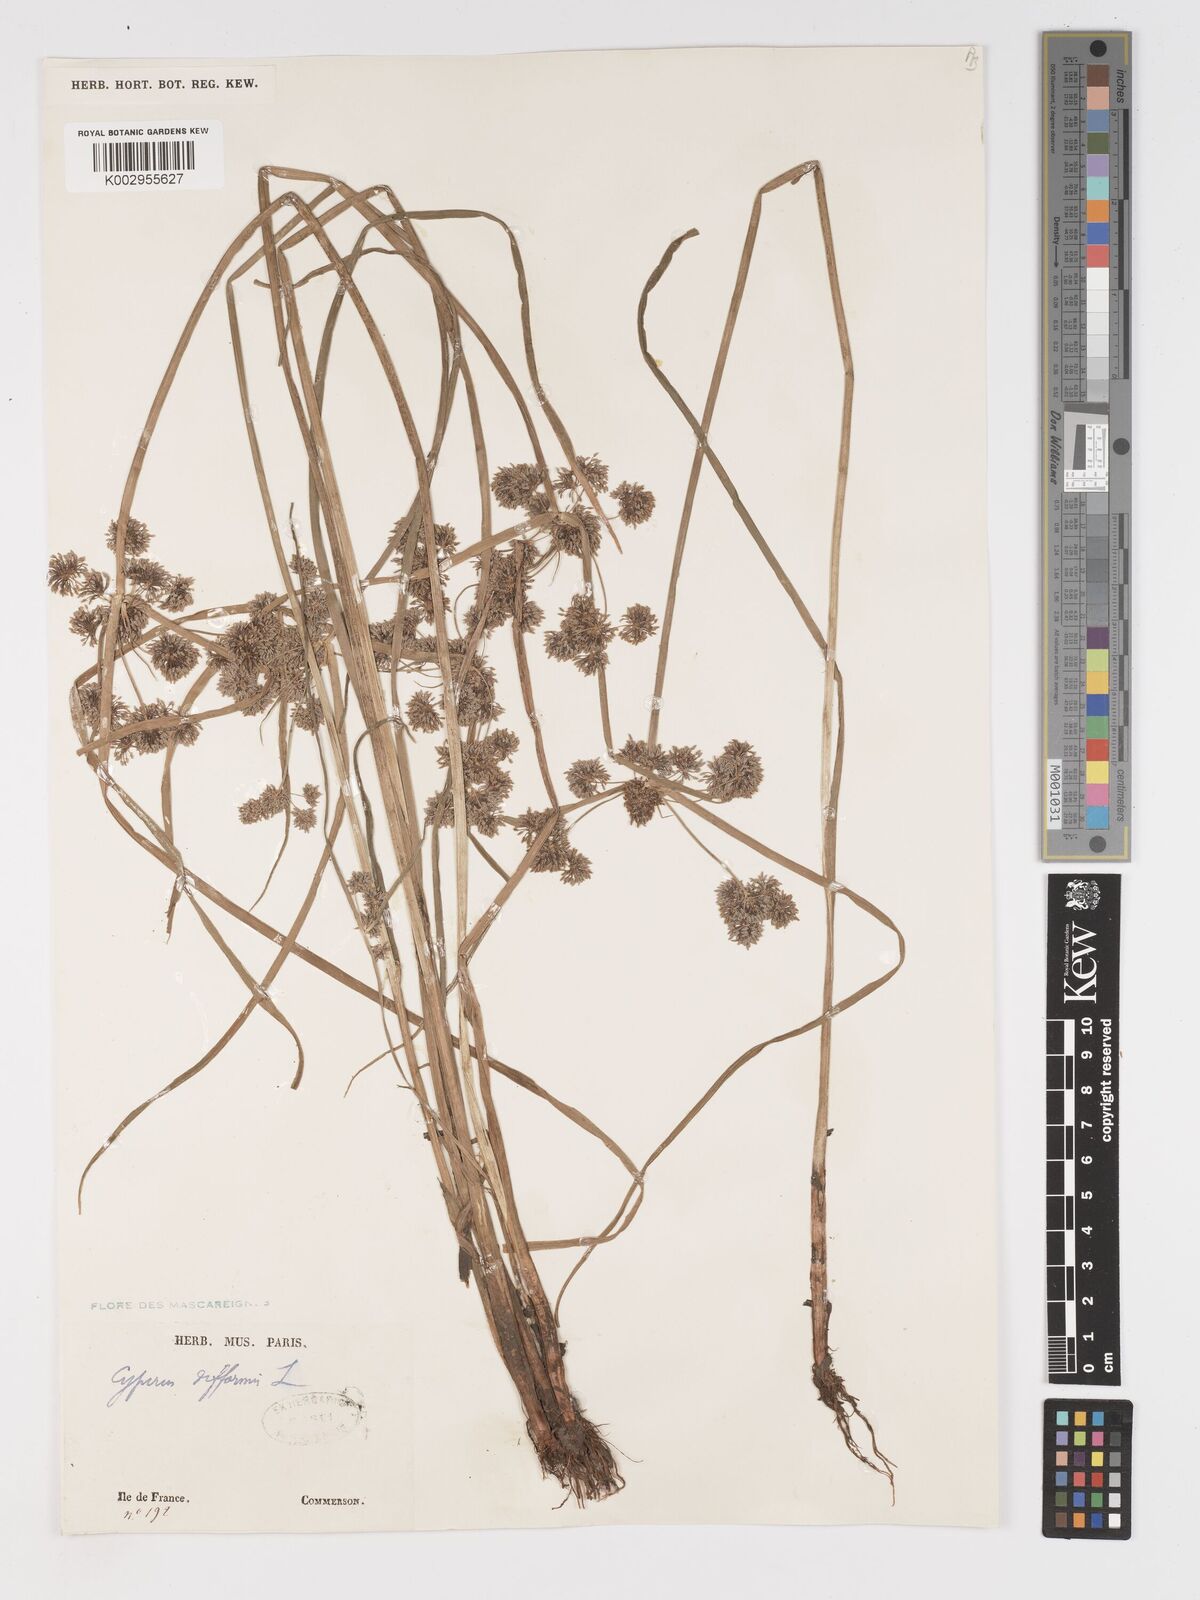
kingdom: Plantae
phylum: Tracheophyta
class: Liliopsida
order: Poales
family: Cyperaceae
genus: Cyperus
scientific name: Cyperus difformis
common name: Variable flatsedge
